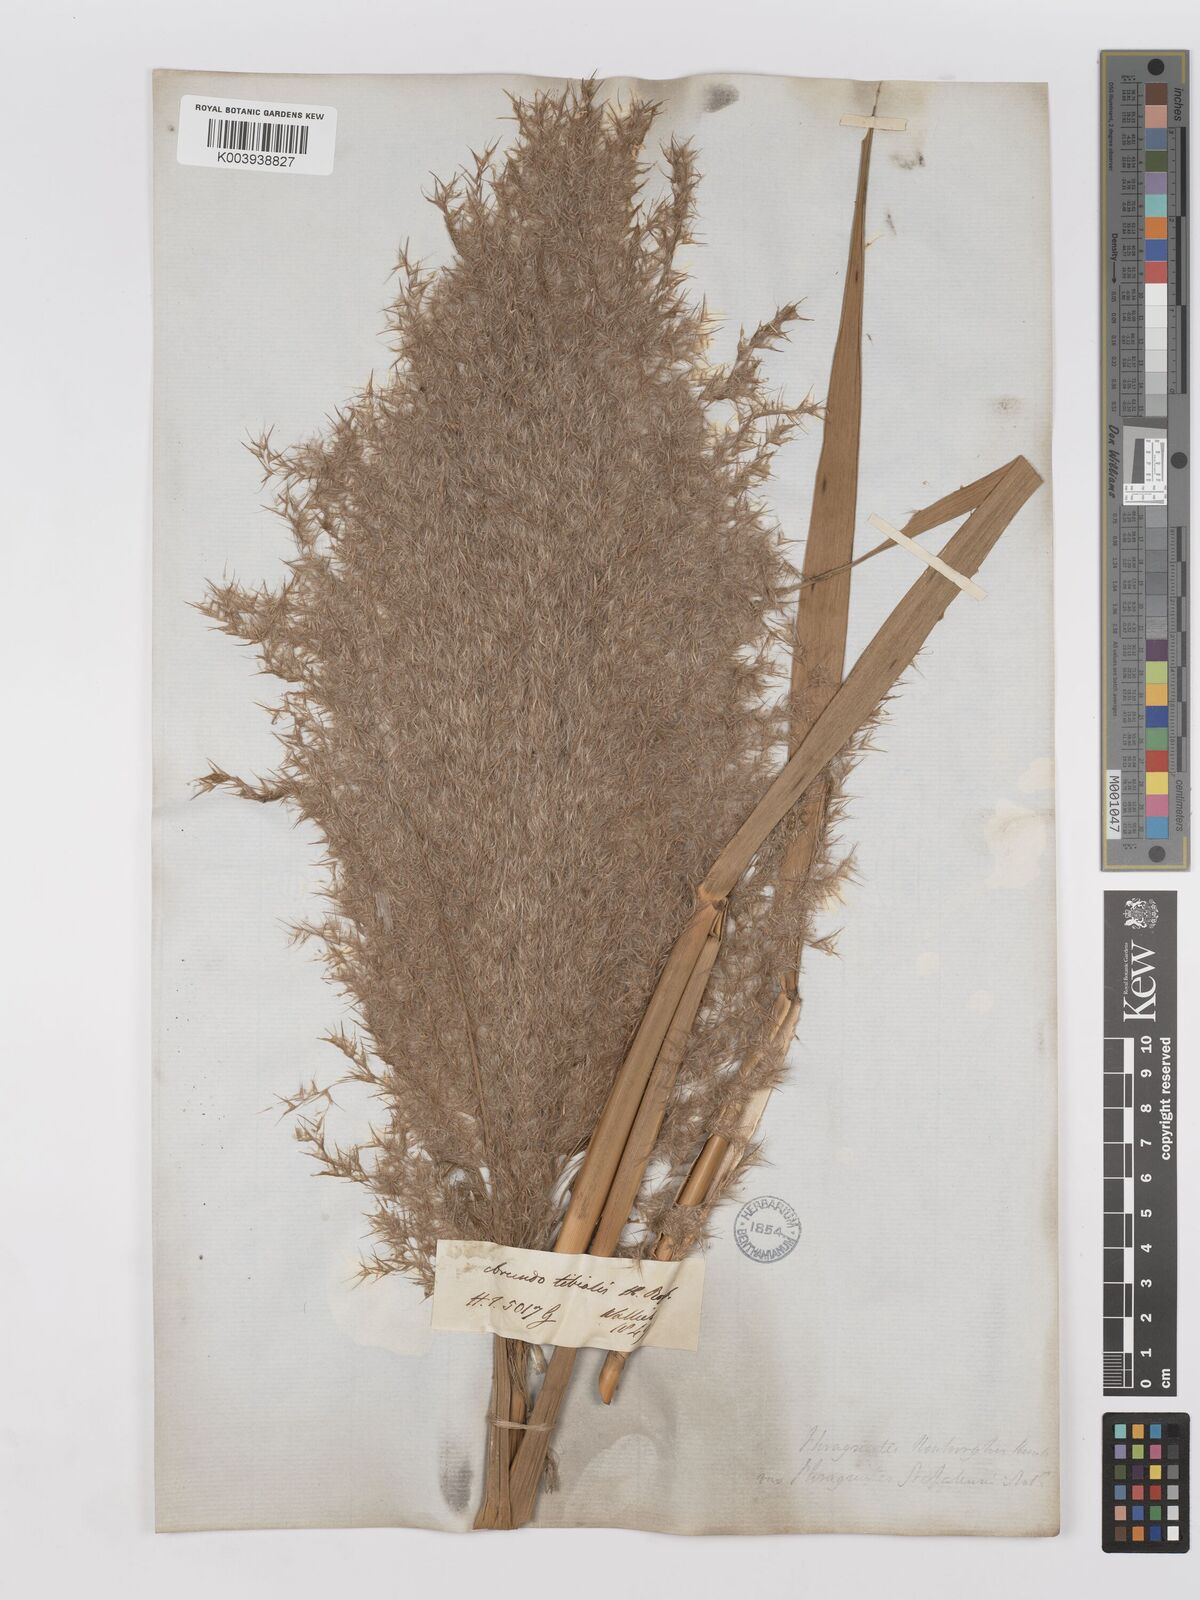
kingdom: Plantae
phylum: Tracheophyta
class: Liliopsida
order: Poales
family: Poaceae
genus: Phragmites
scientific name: Phragmites karka
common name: Tropical reed
